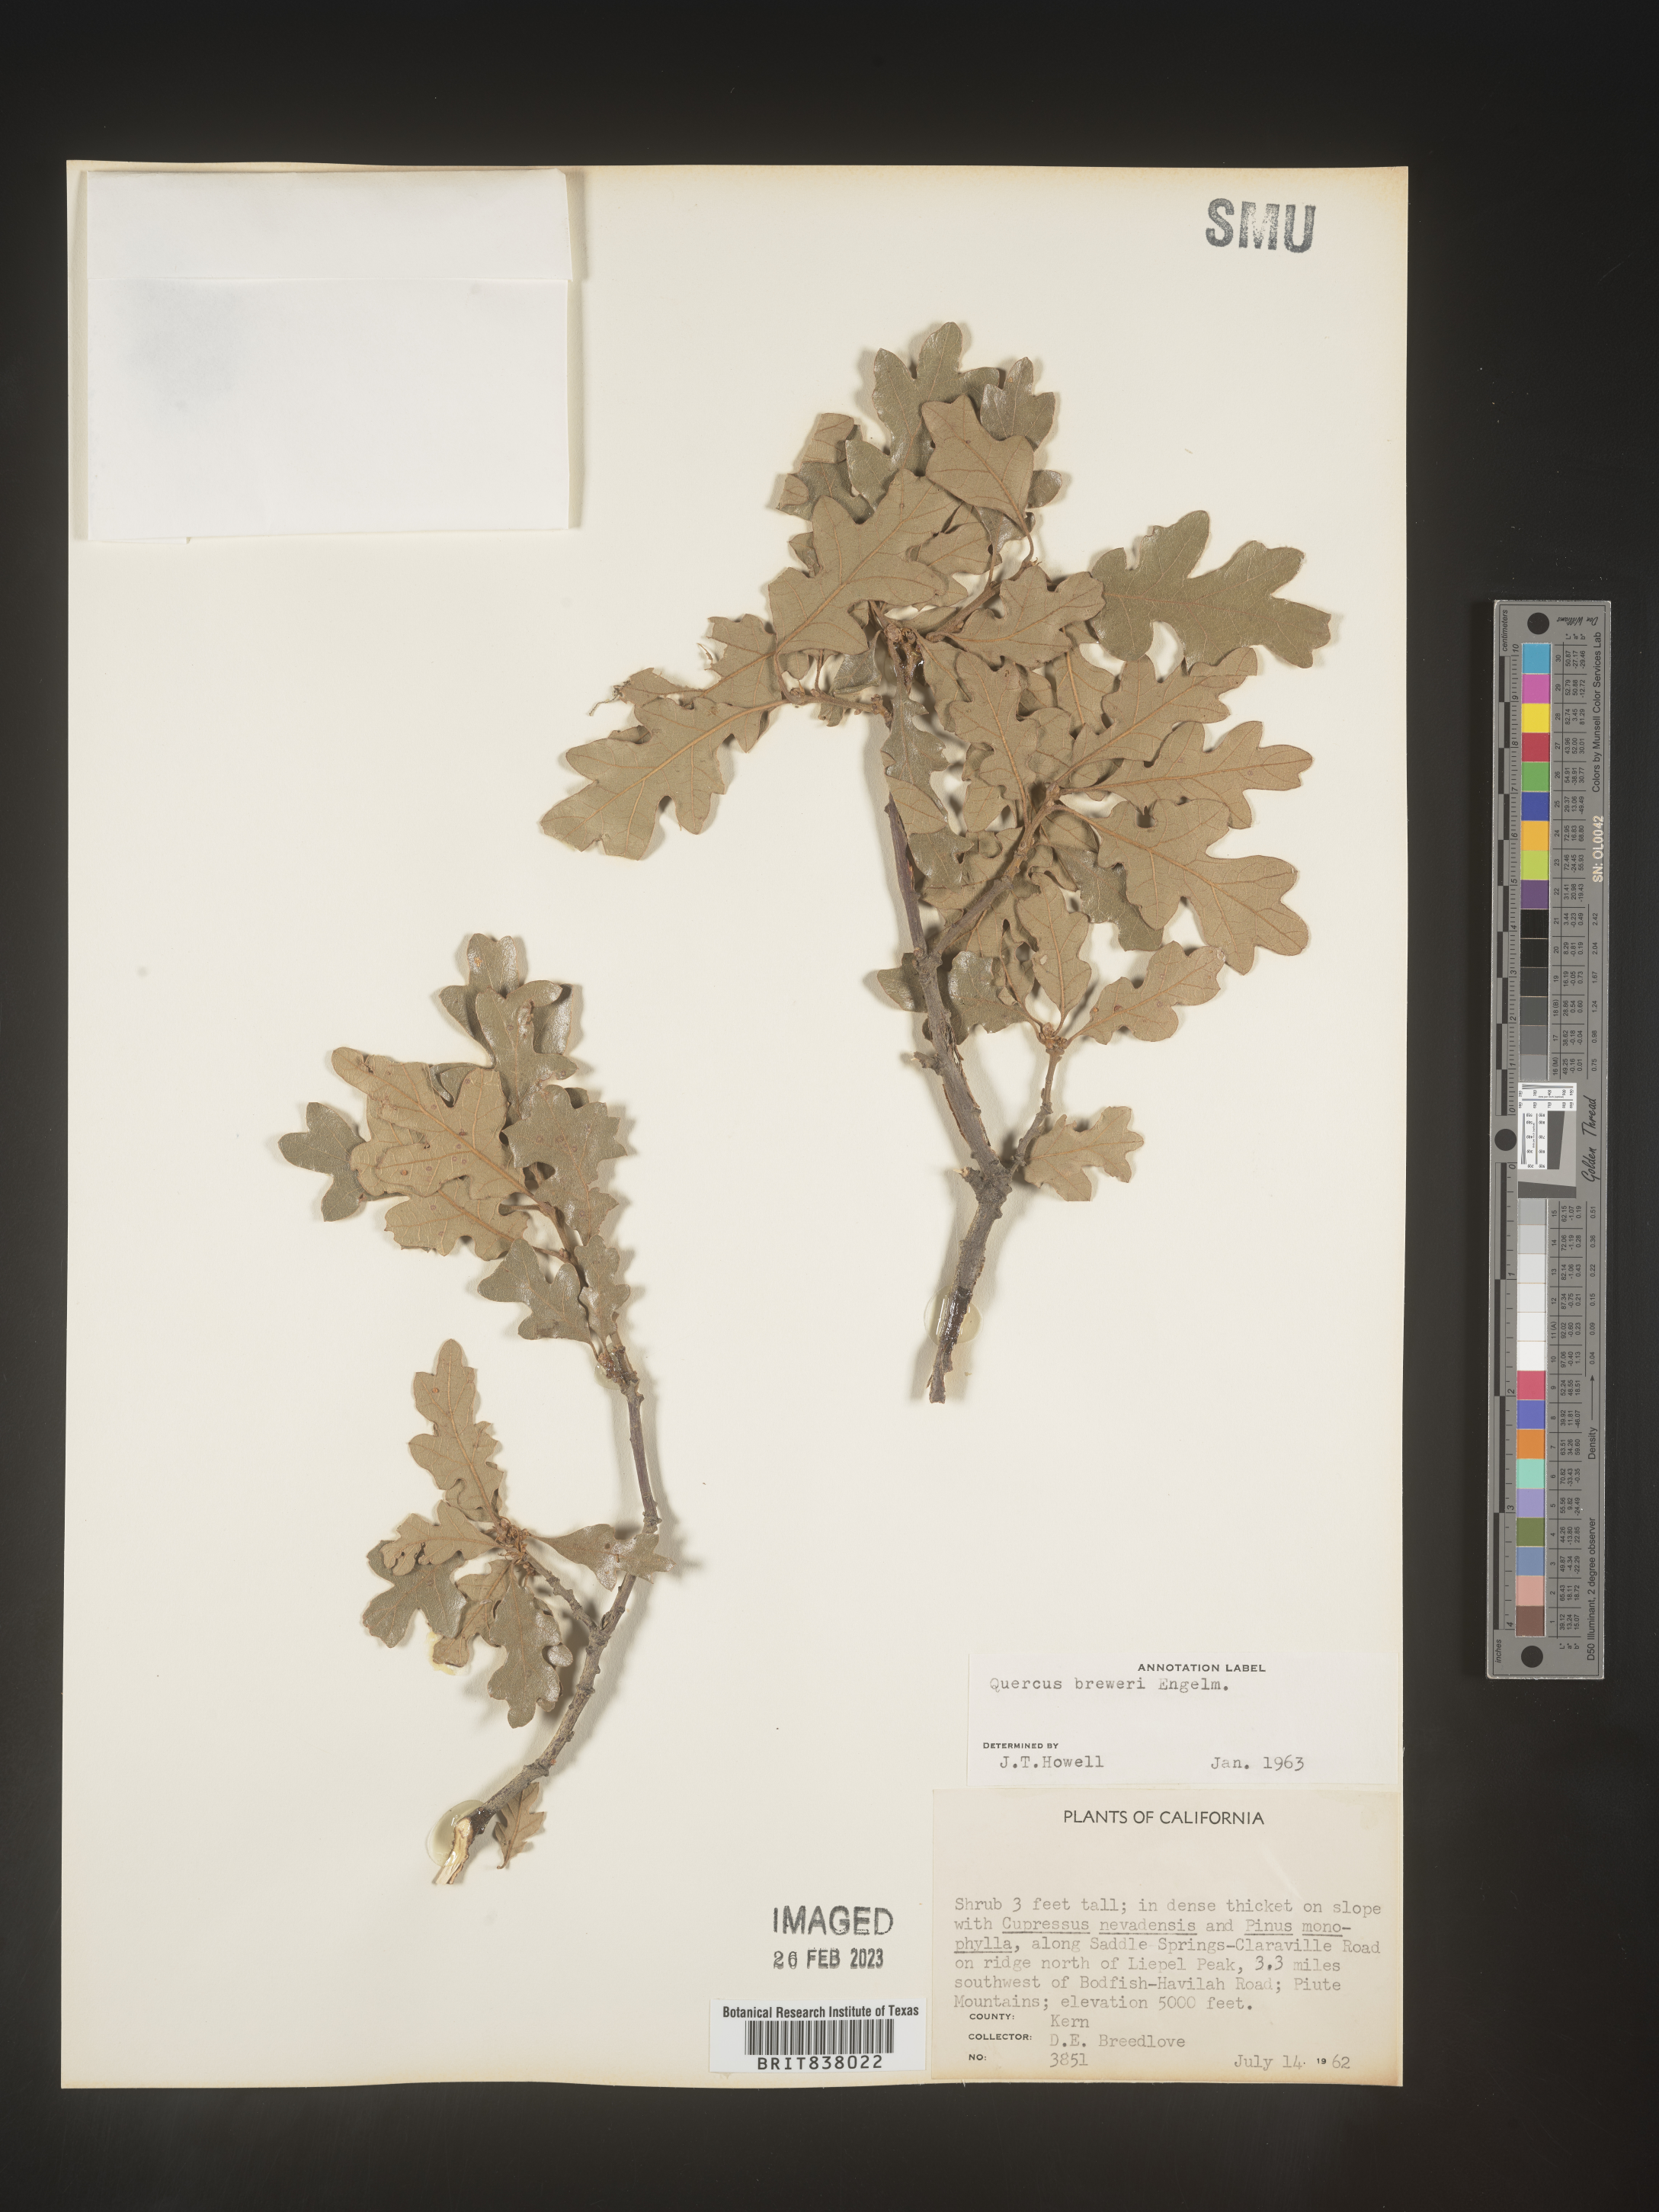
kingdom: Plantae
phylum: Tracheophyta
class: Magnoliopsida
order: Fagales
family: Fagaceae
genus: Quercus
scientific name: Quercus
